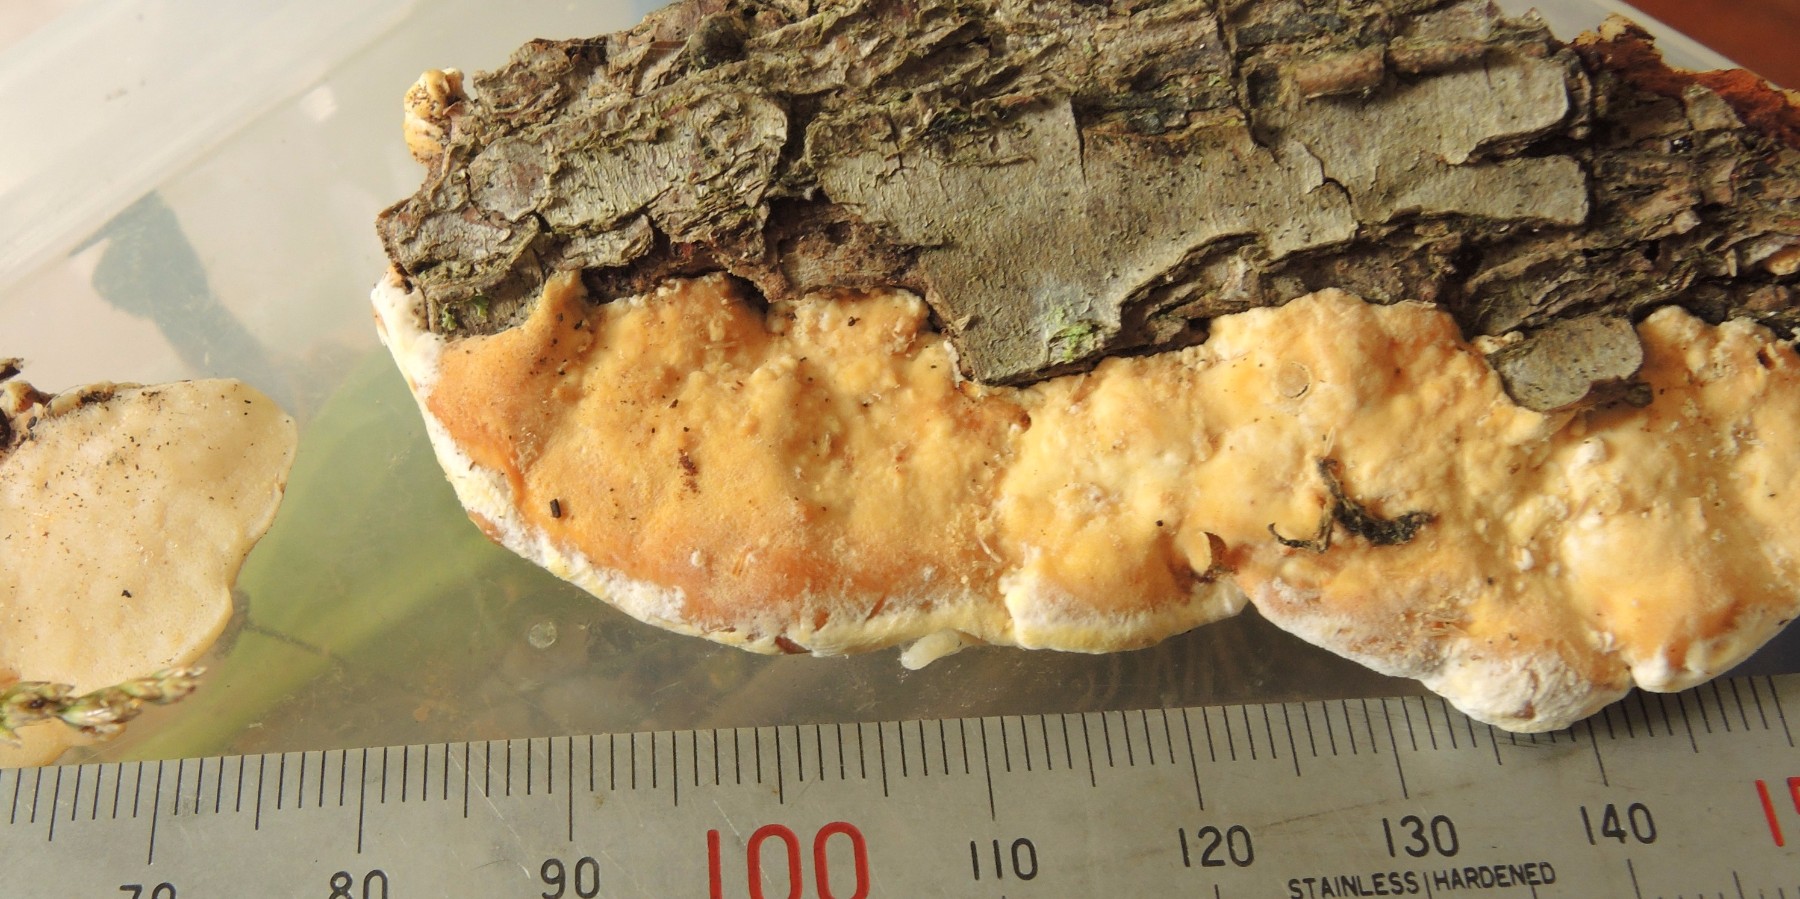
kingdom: Fungi
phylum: Basidiomycota
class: Agaricomycetes
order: Polyporales
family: Incrustoporiaceae
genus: Skeletocutis
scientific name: Skeletocutis nemoralis
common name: stor krystalporesvamp
